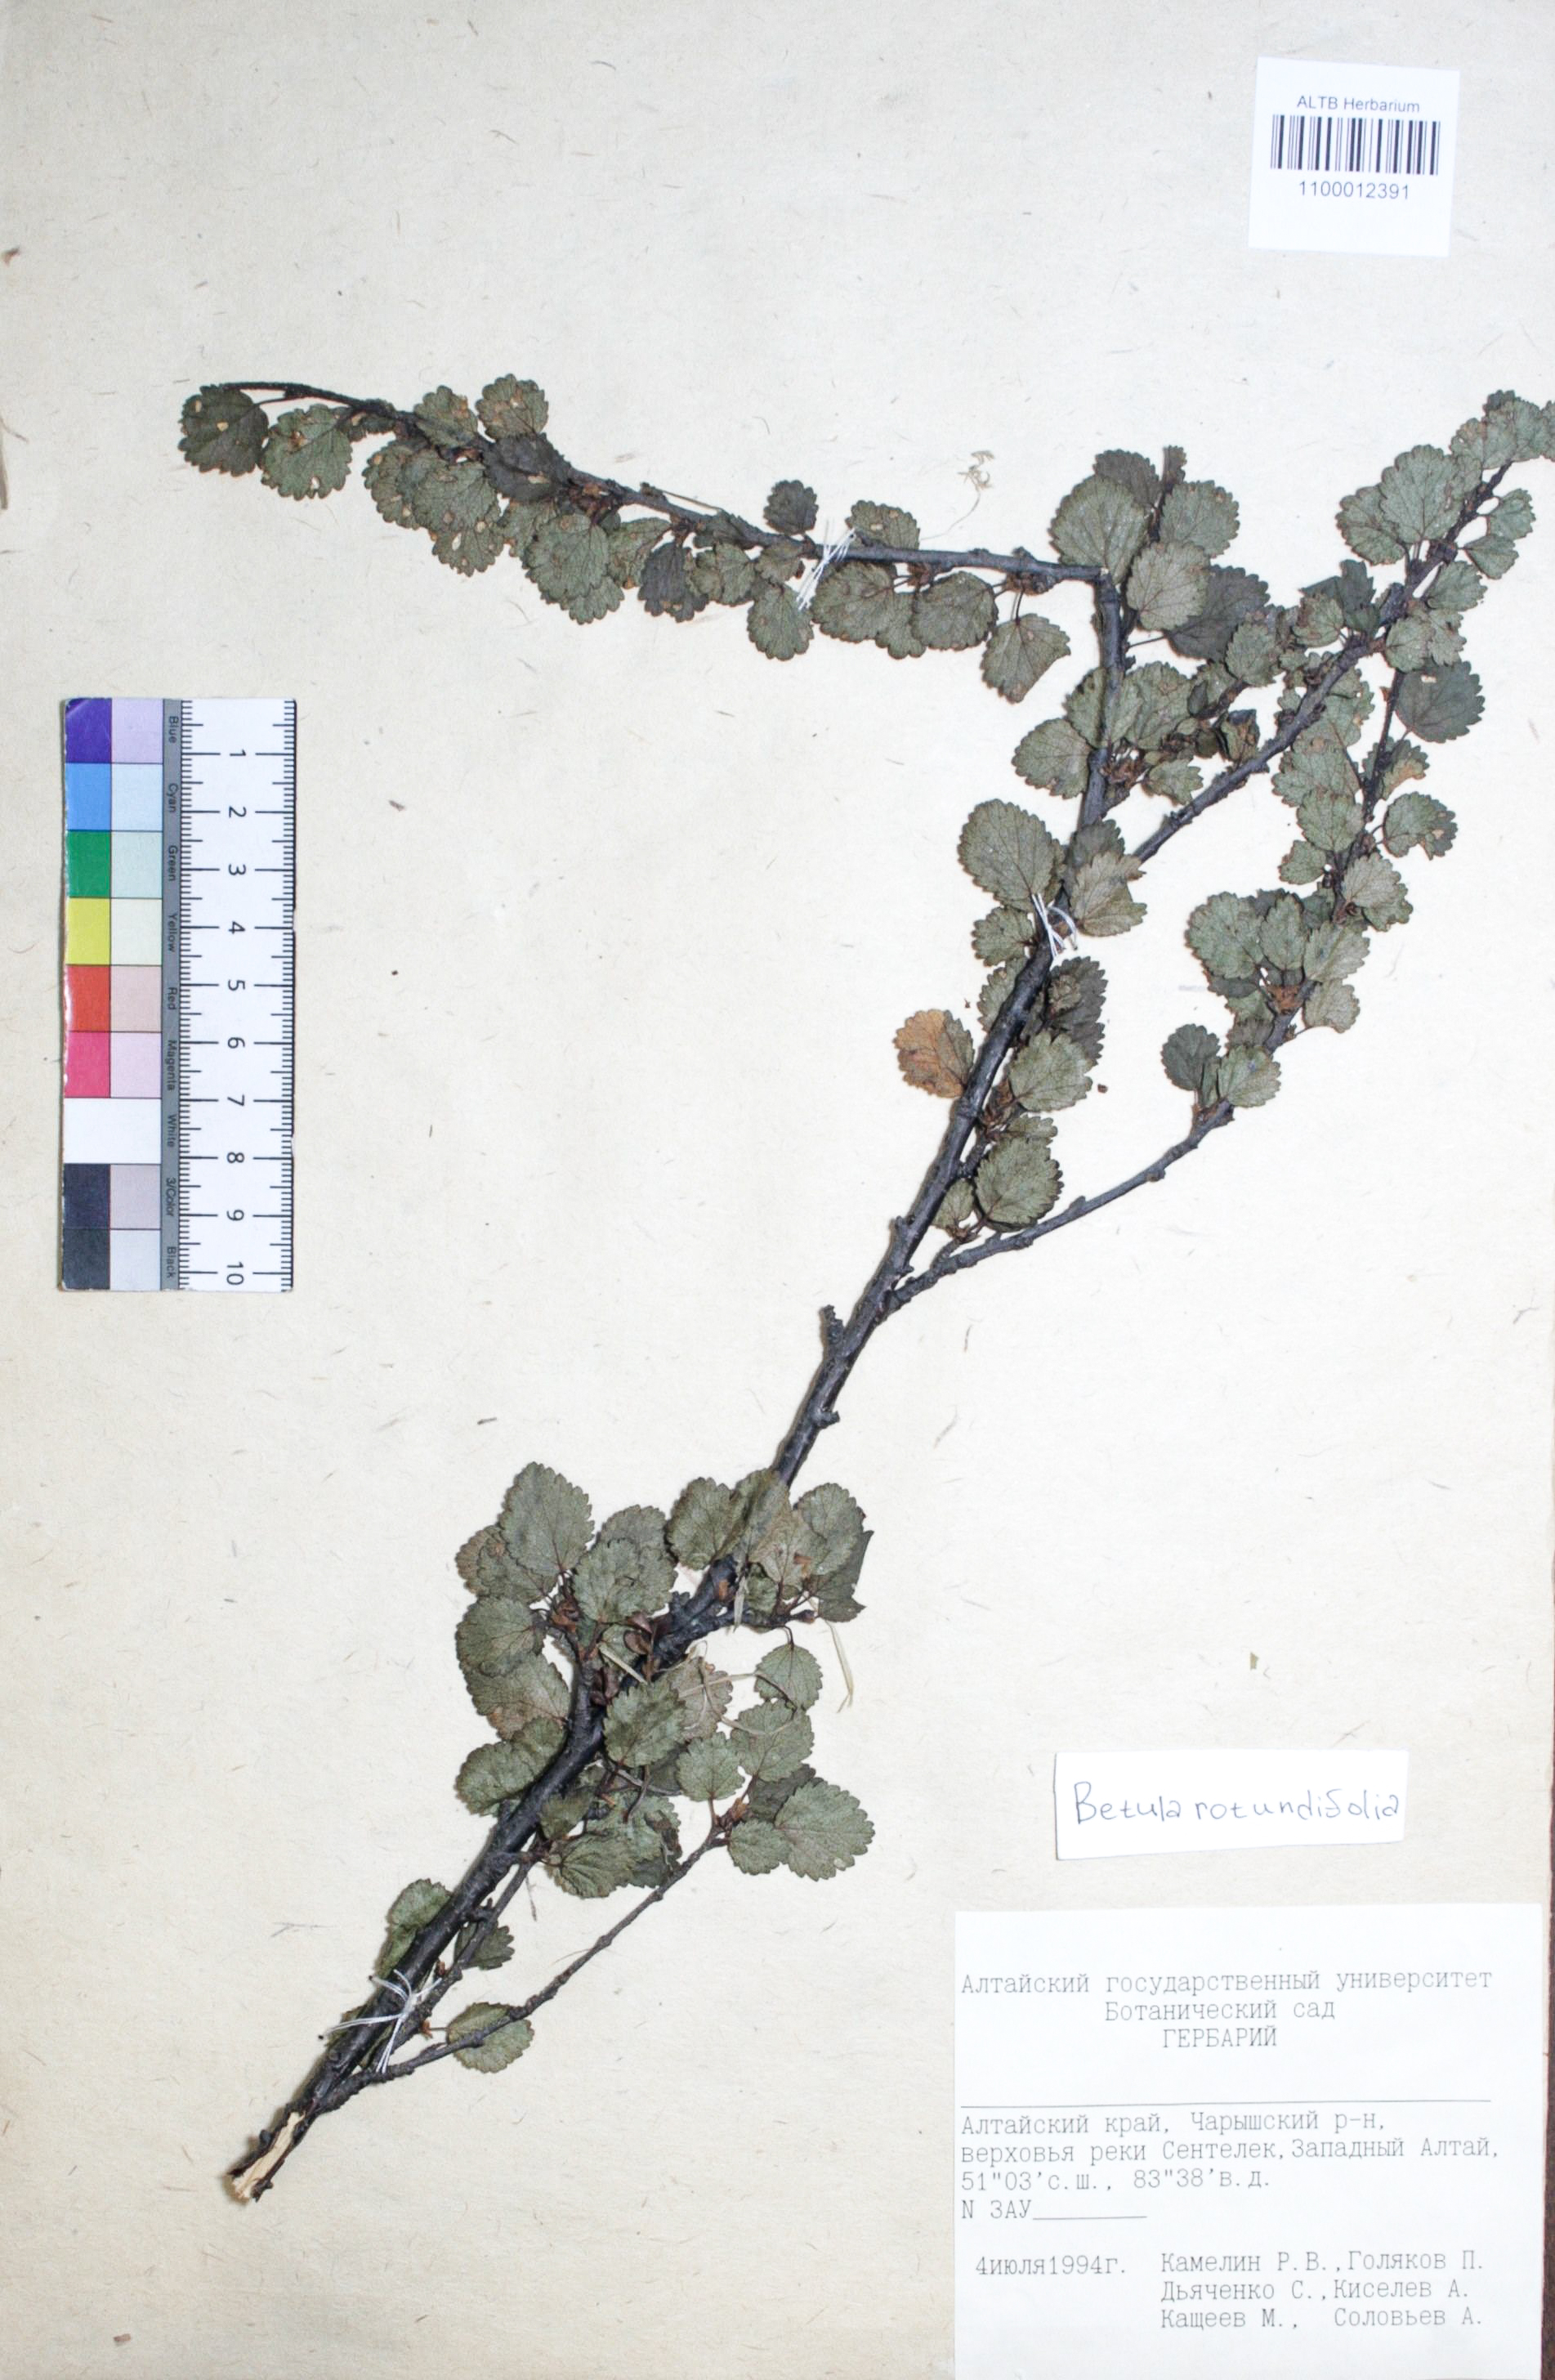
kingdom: Plantae
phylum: Tracheophyta
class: Magnoliopsida
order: Fagales
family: Betulaceae
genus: Betula
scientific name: Betula glandulosa
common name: Dwarf birch
